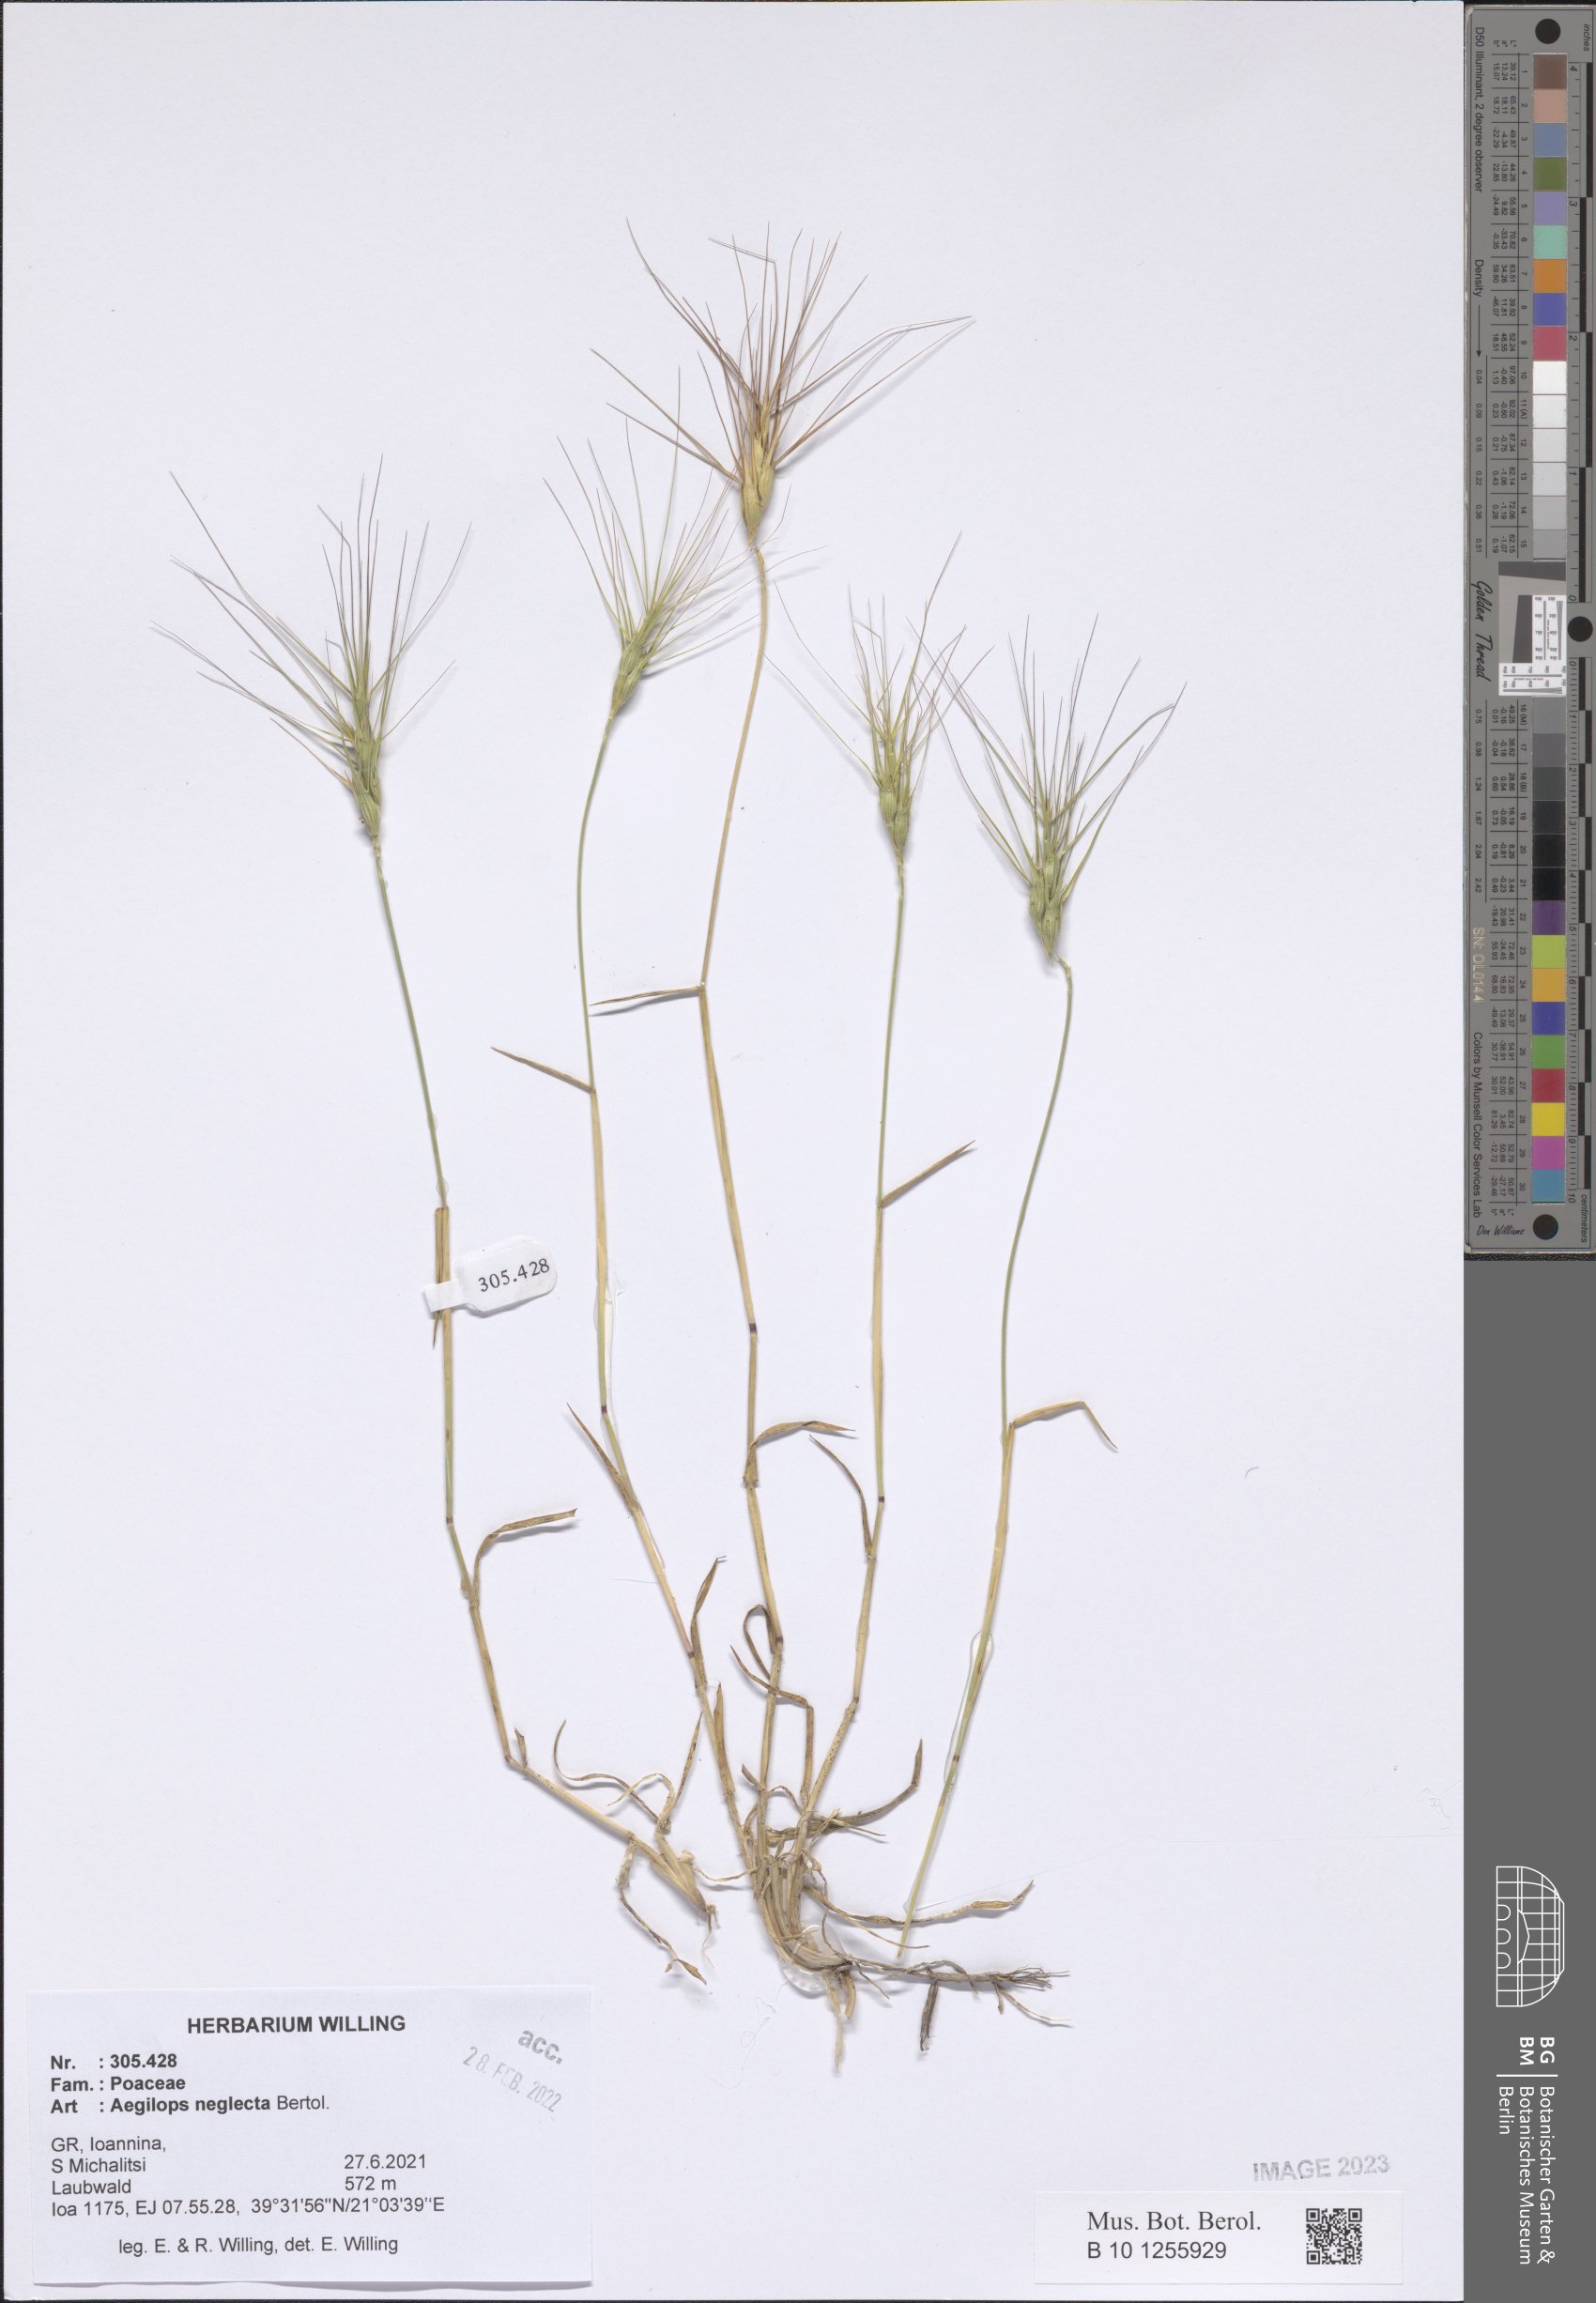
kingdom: Plantae
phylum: Tracheophyta
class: Liliopsida
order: Poales
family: Poaceae
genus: Aegilops
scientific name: Aegilops neglecta
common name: Three-awn goat grass
